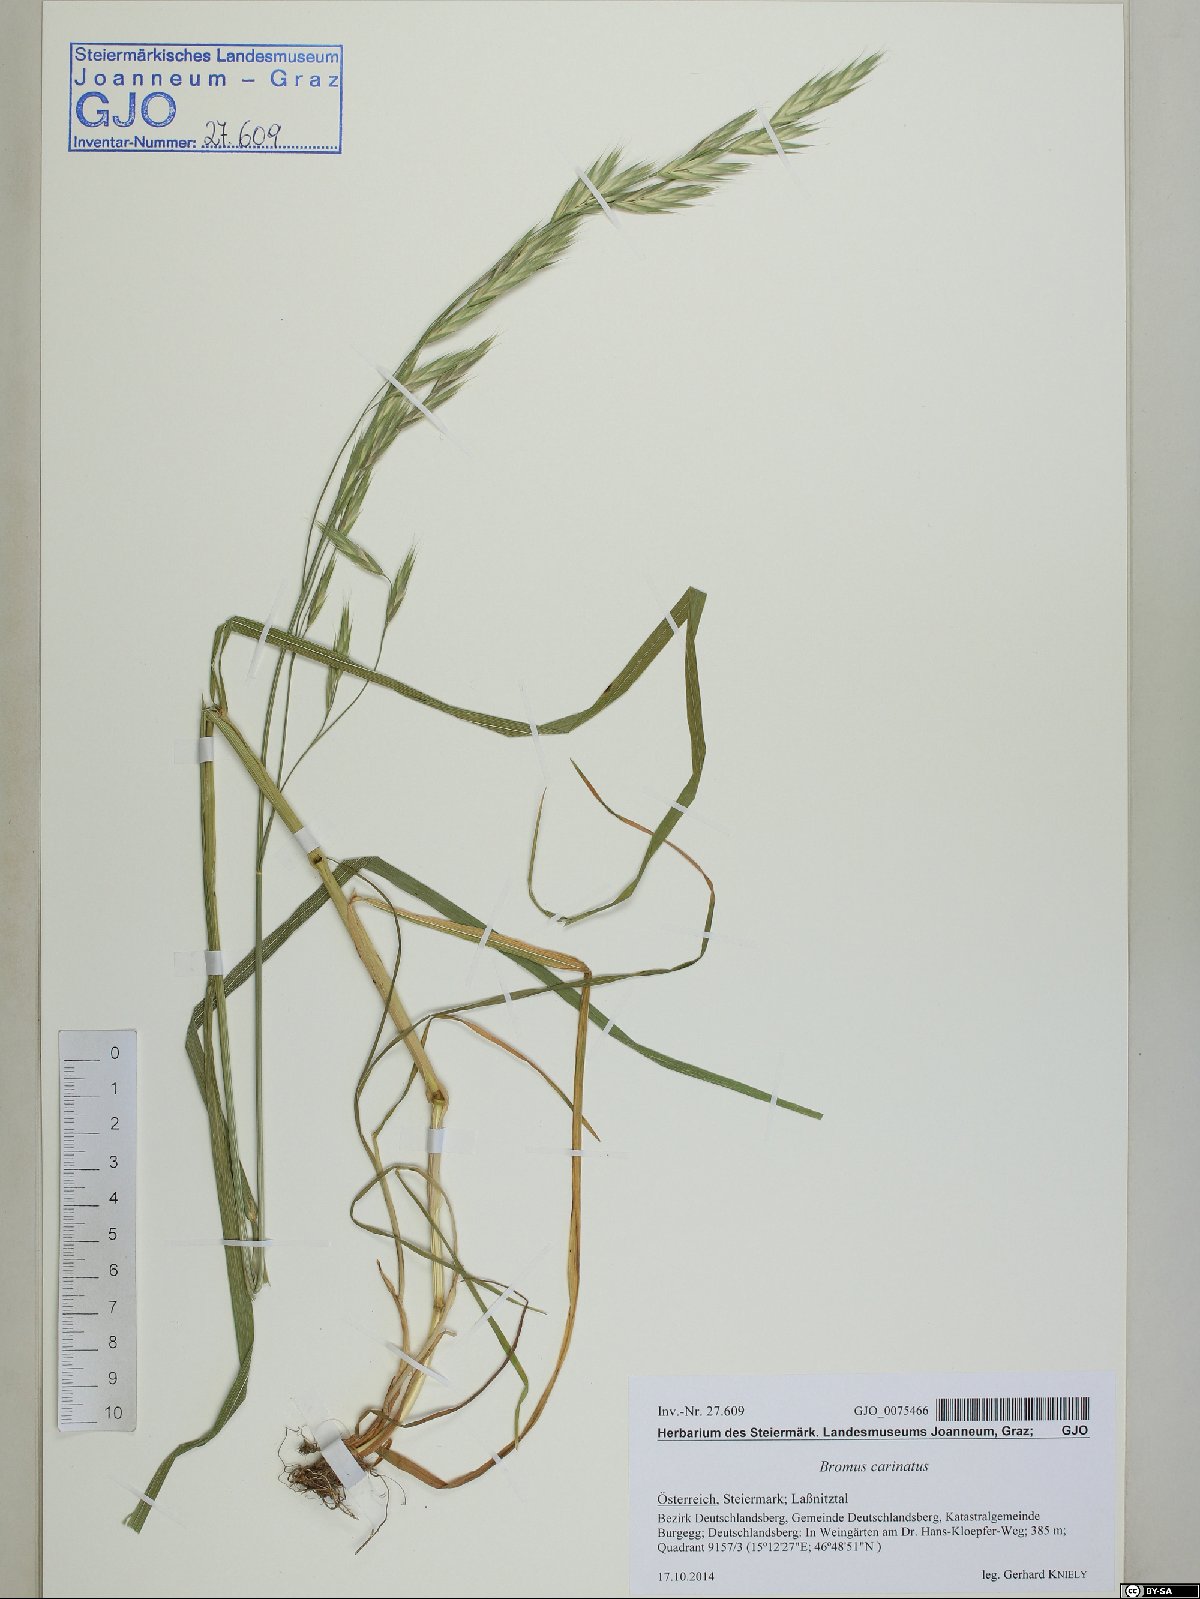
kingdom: Plantae
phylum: Tracheophyta
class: Liliopsida
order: Poales
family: Poaceae
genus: Bromus
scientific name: Bromus carinatus
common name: Mountain brome
